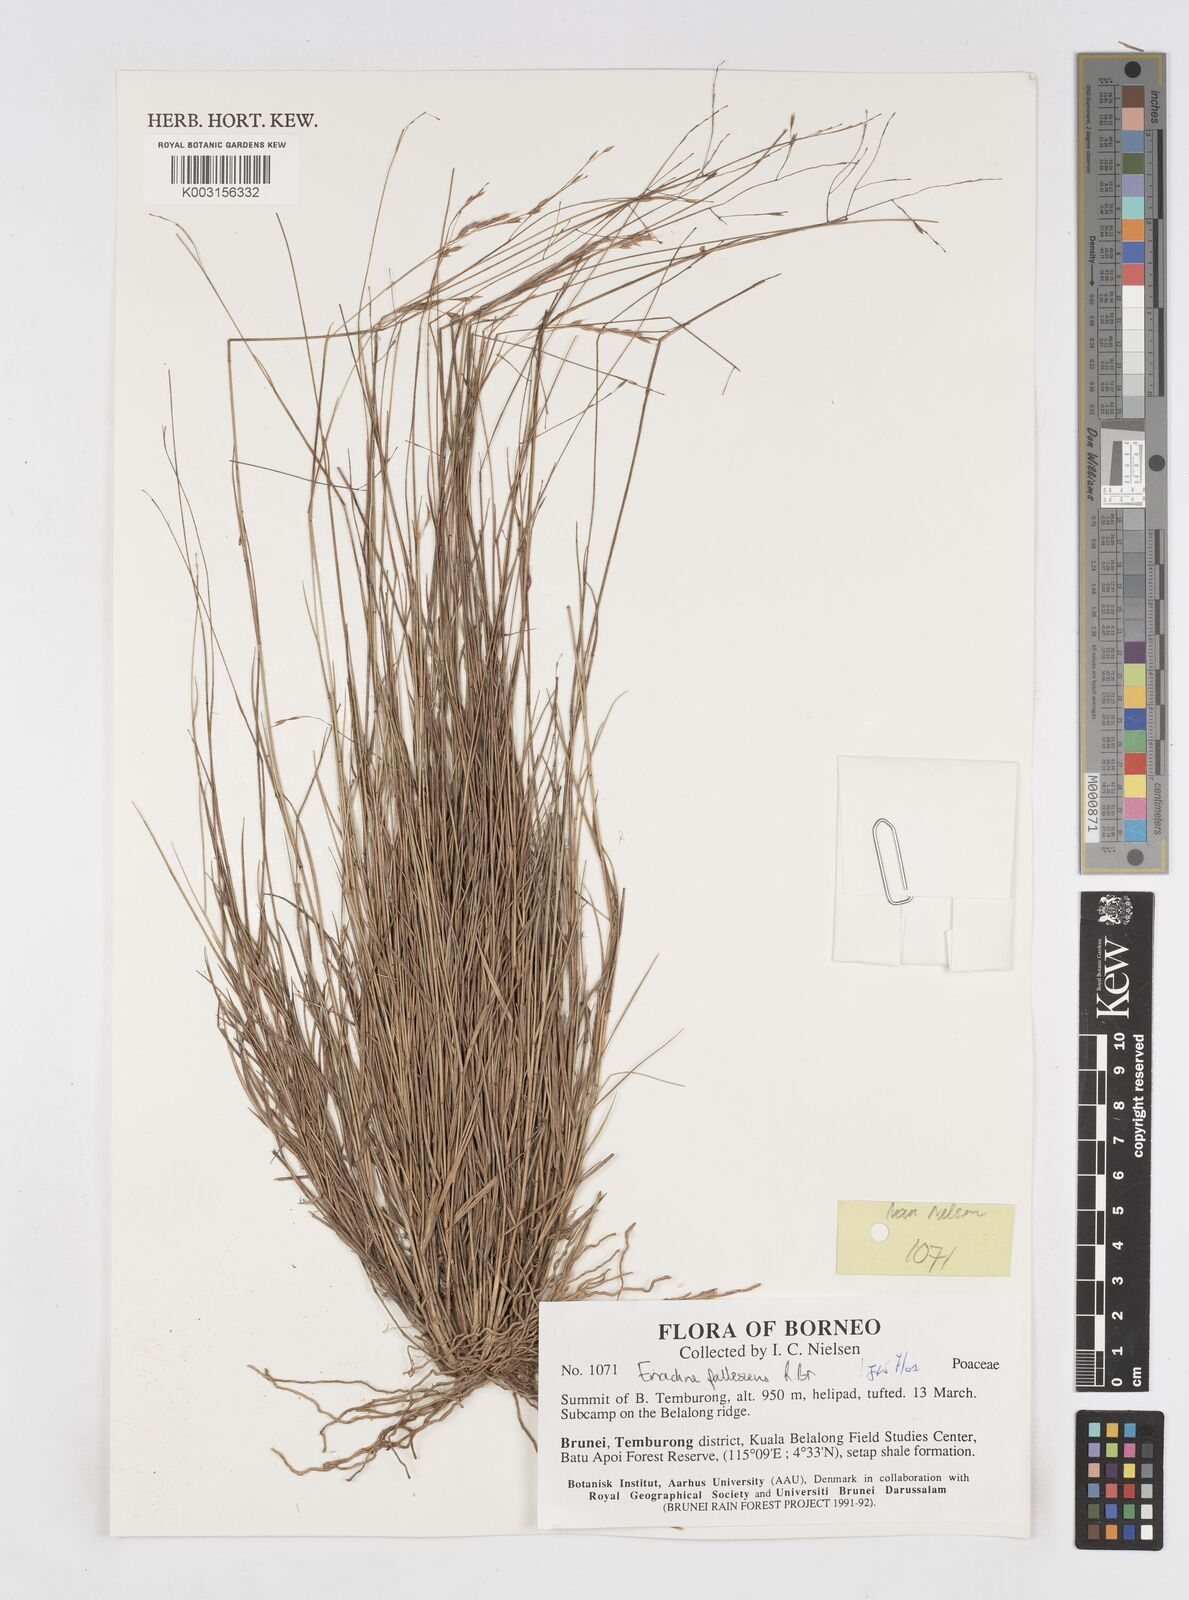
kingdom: Plantae
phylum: Tracheophyta
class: Liliopsida
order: Poales
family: Poaceae
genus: Eriachne
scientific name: Eriachne pallescens
